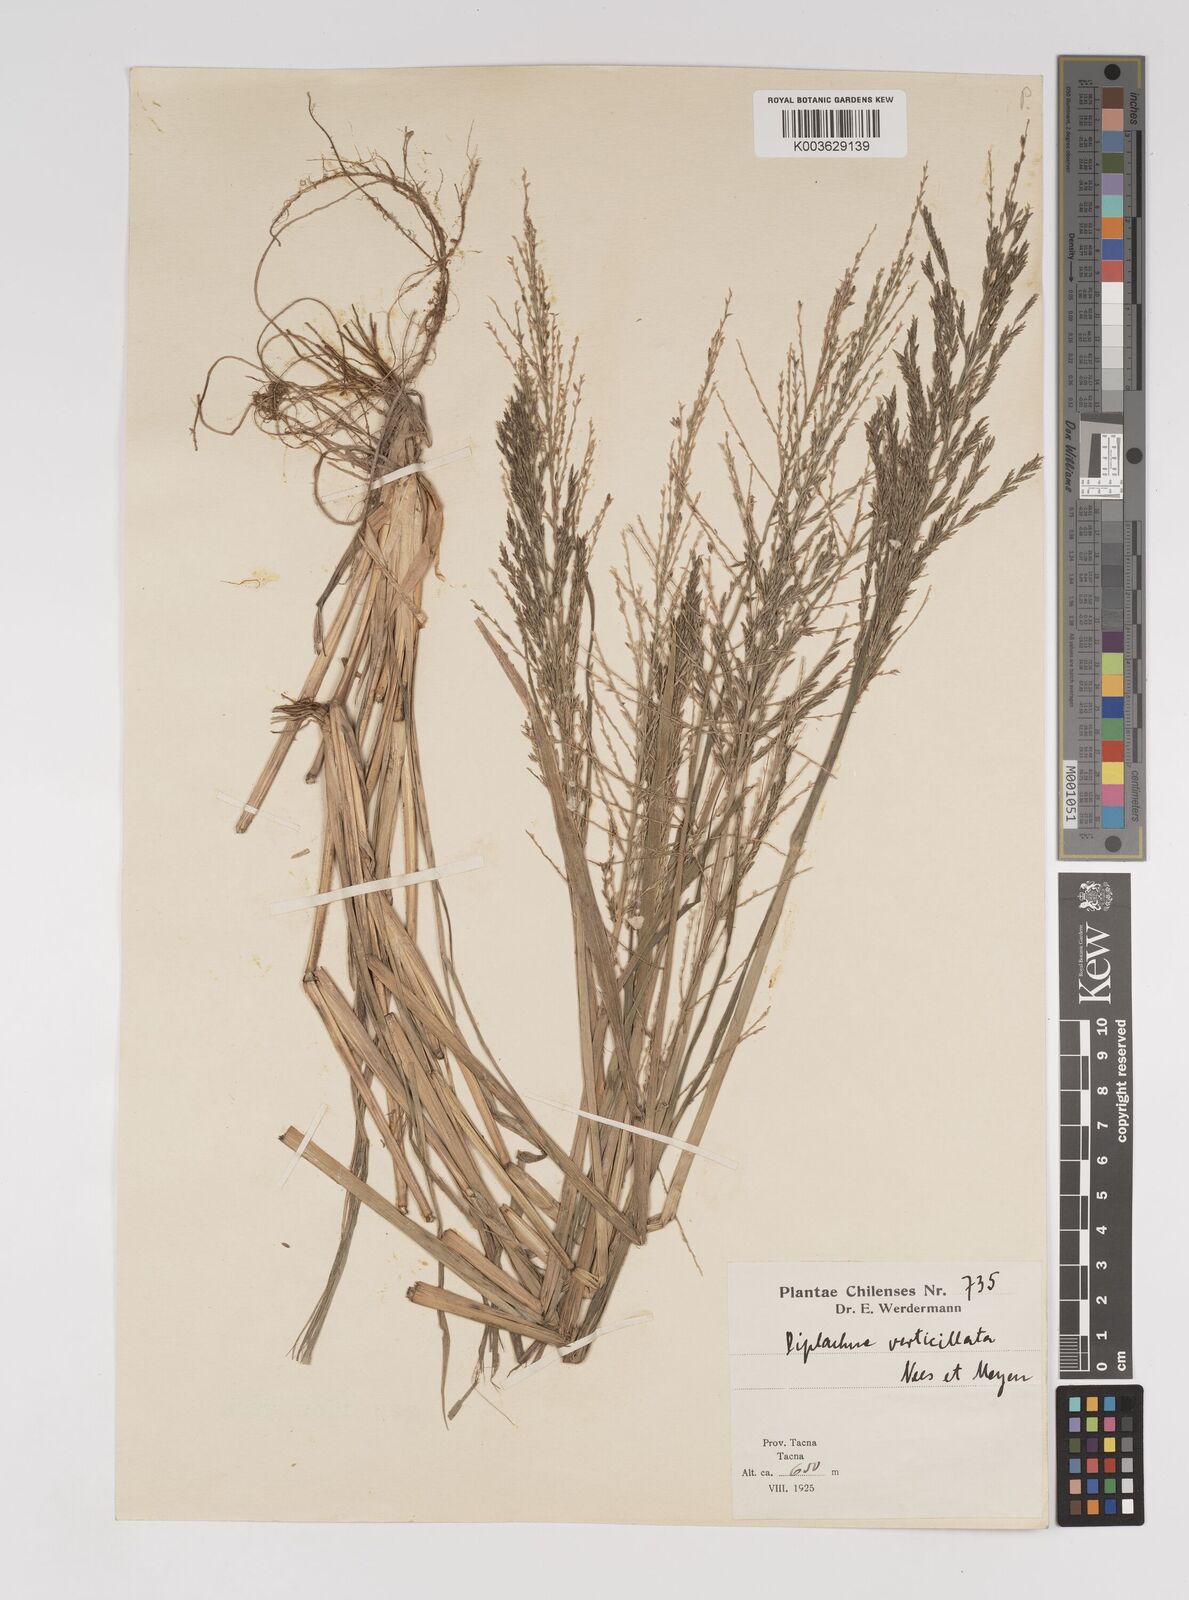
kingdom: Plantae
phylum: Tracheophyta
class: Liliopsida
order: Poales
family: Poaceae
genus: Diplachne
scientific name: Diplachne fusca
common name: Brown beetle grass
